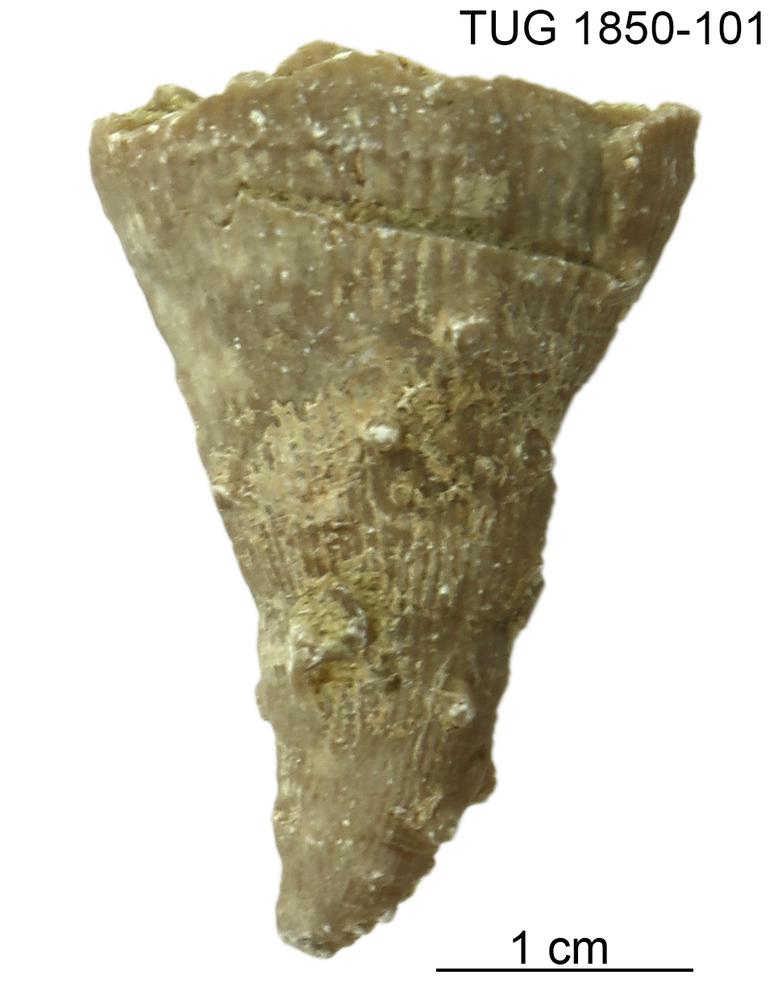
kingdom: Animalia
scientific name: Animalia
